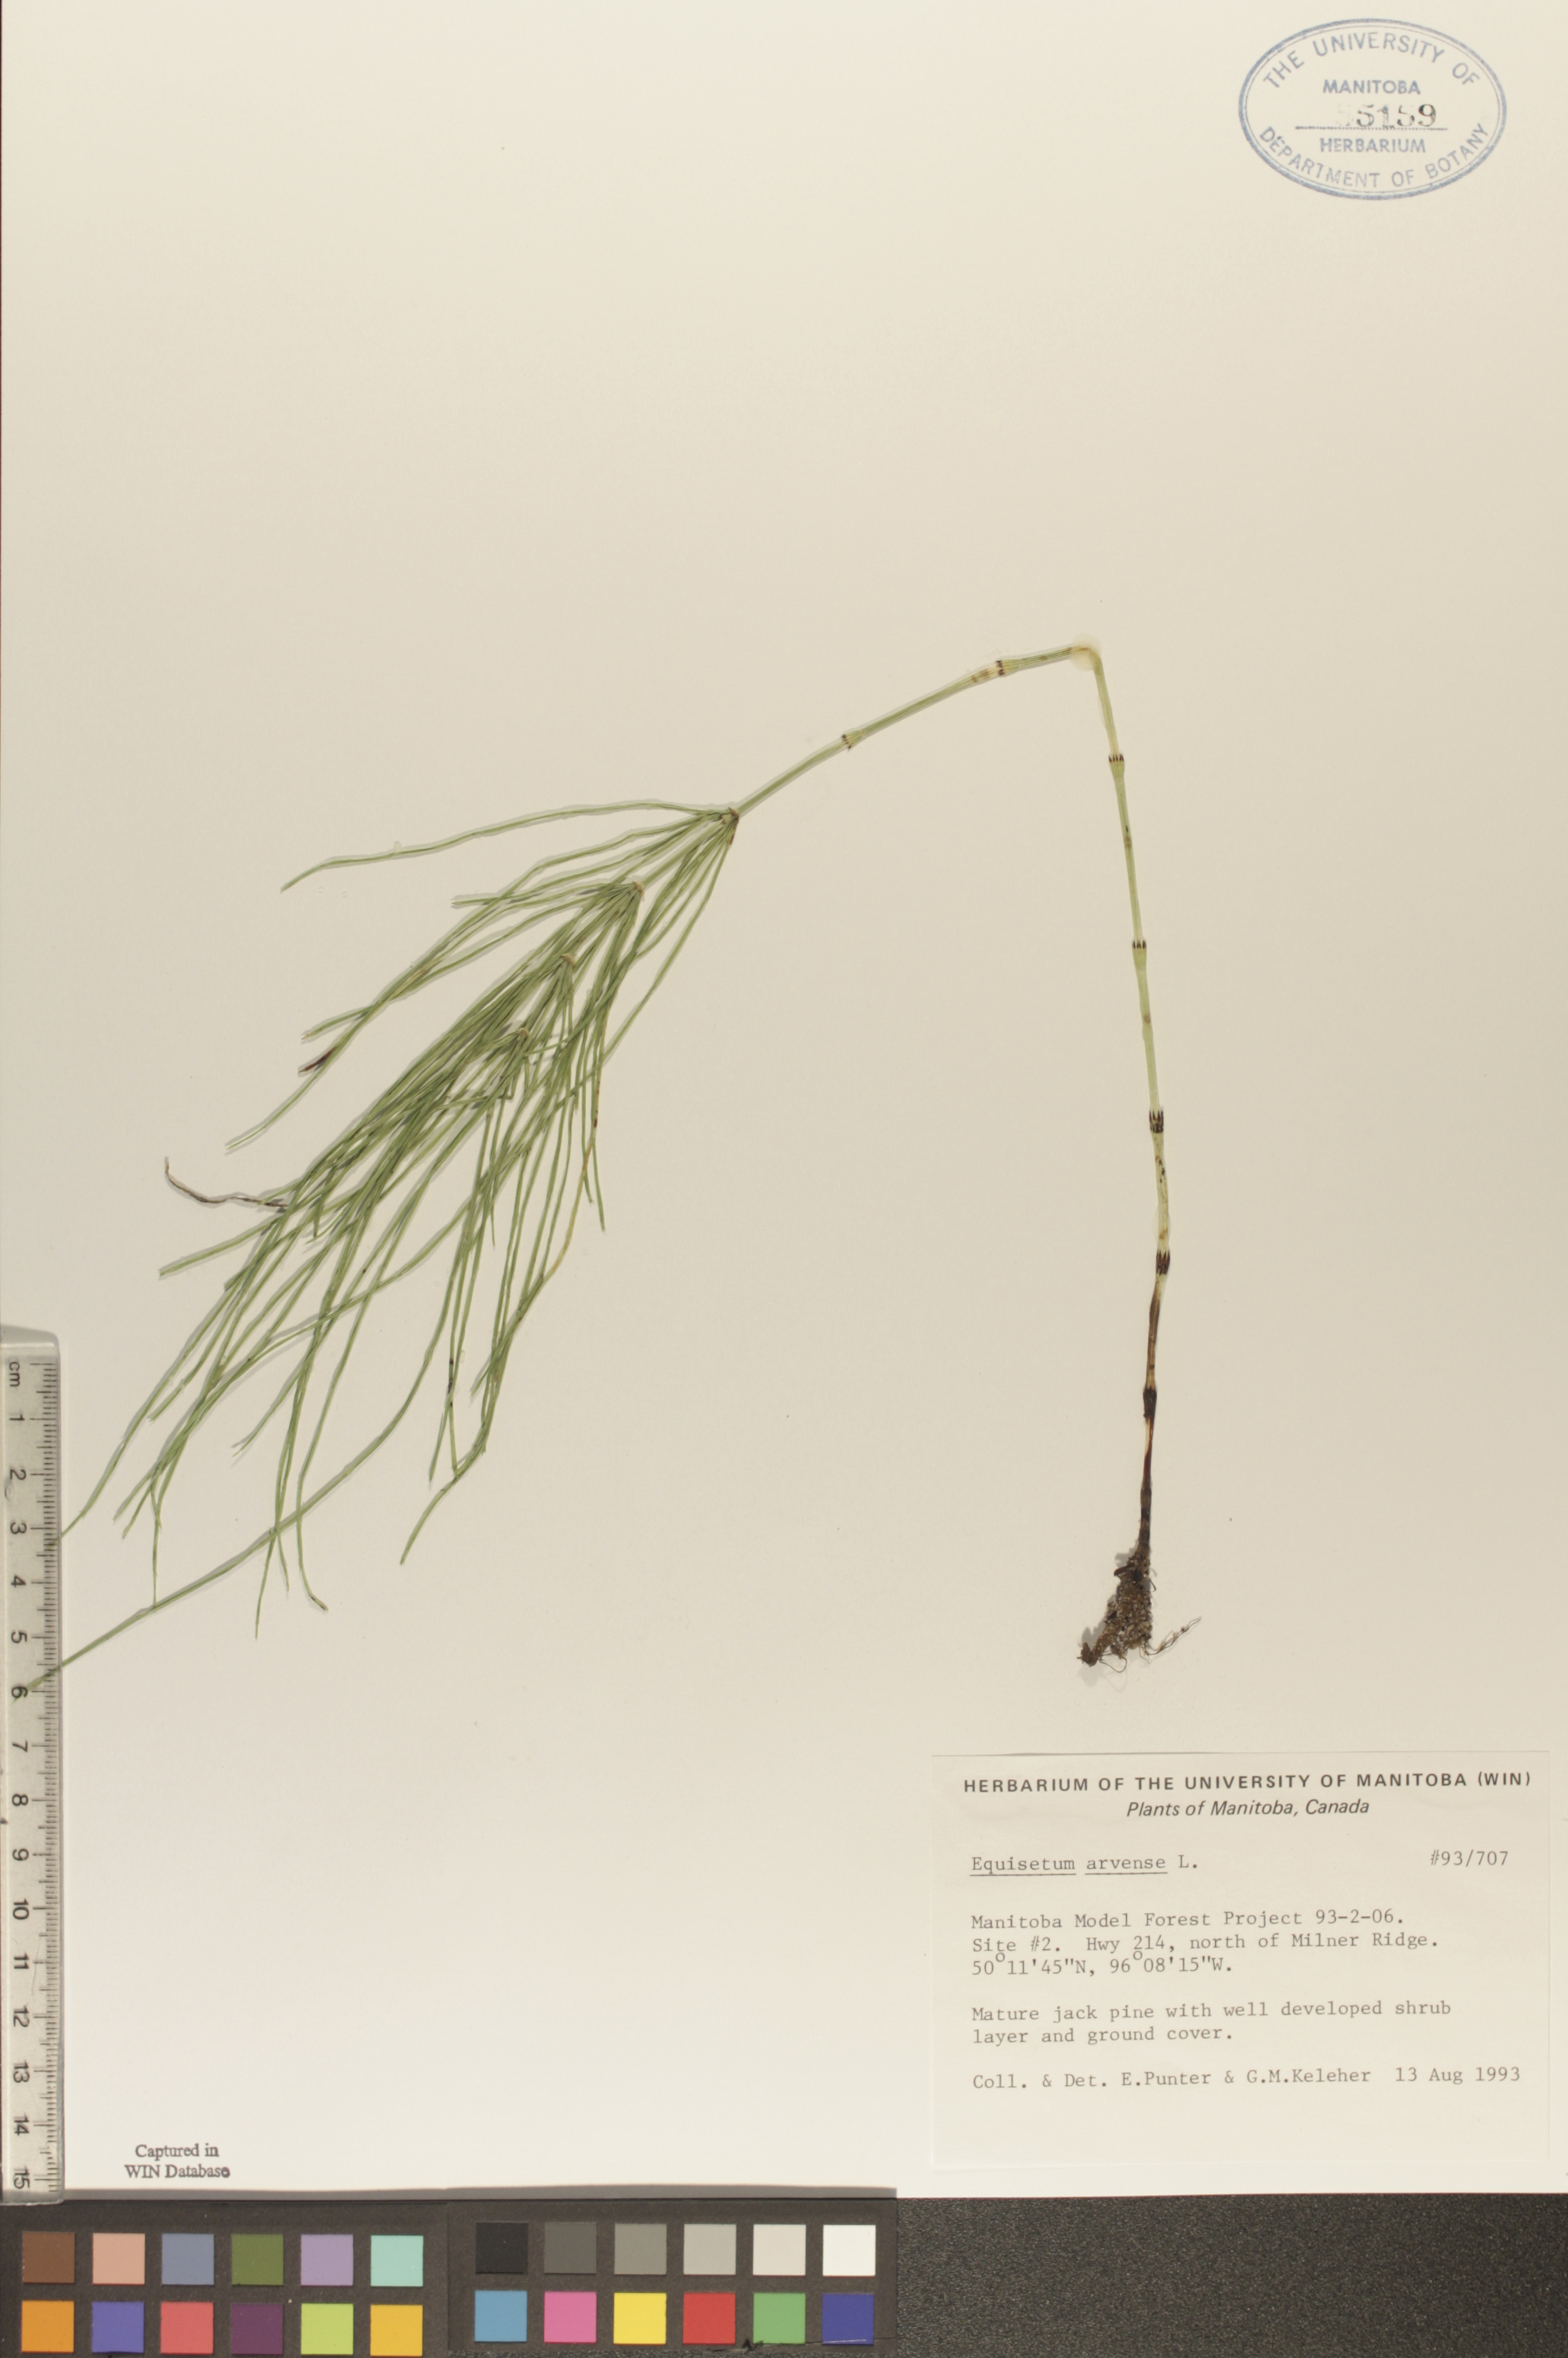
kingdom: Plantae
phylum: Tracheophyta
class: Polypodiopsida
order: Equisetales
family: Equisetaceae
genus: Equisetum
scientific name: Equisetum arvense
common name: Field horsetail
